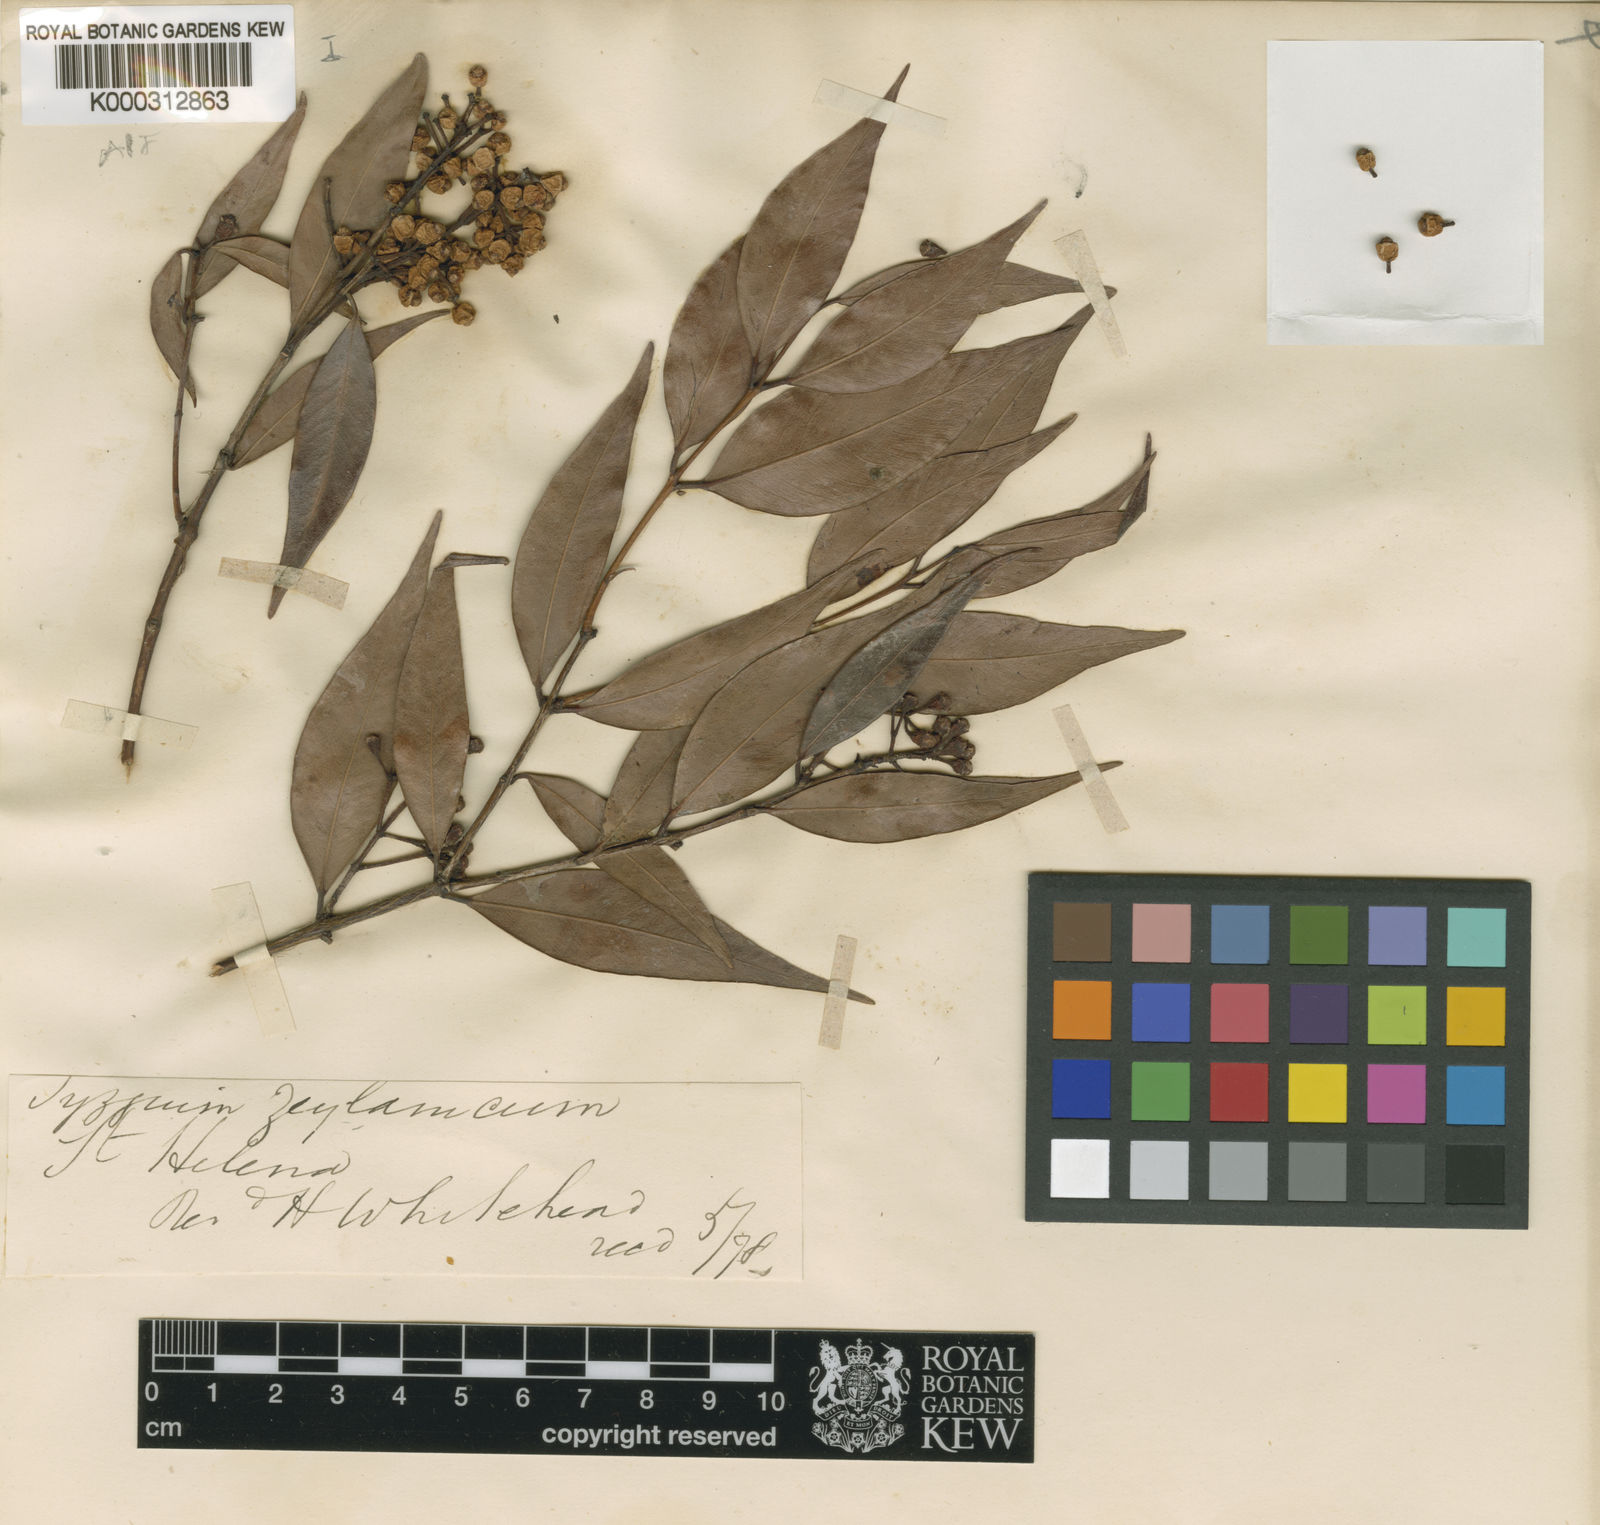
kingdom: Plantae
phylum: Tracheophyta
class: Magnoliopsida
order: Myrtales
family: Myrtaceae
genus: Syzygium
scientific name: Syzygium zeylanicum
